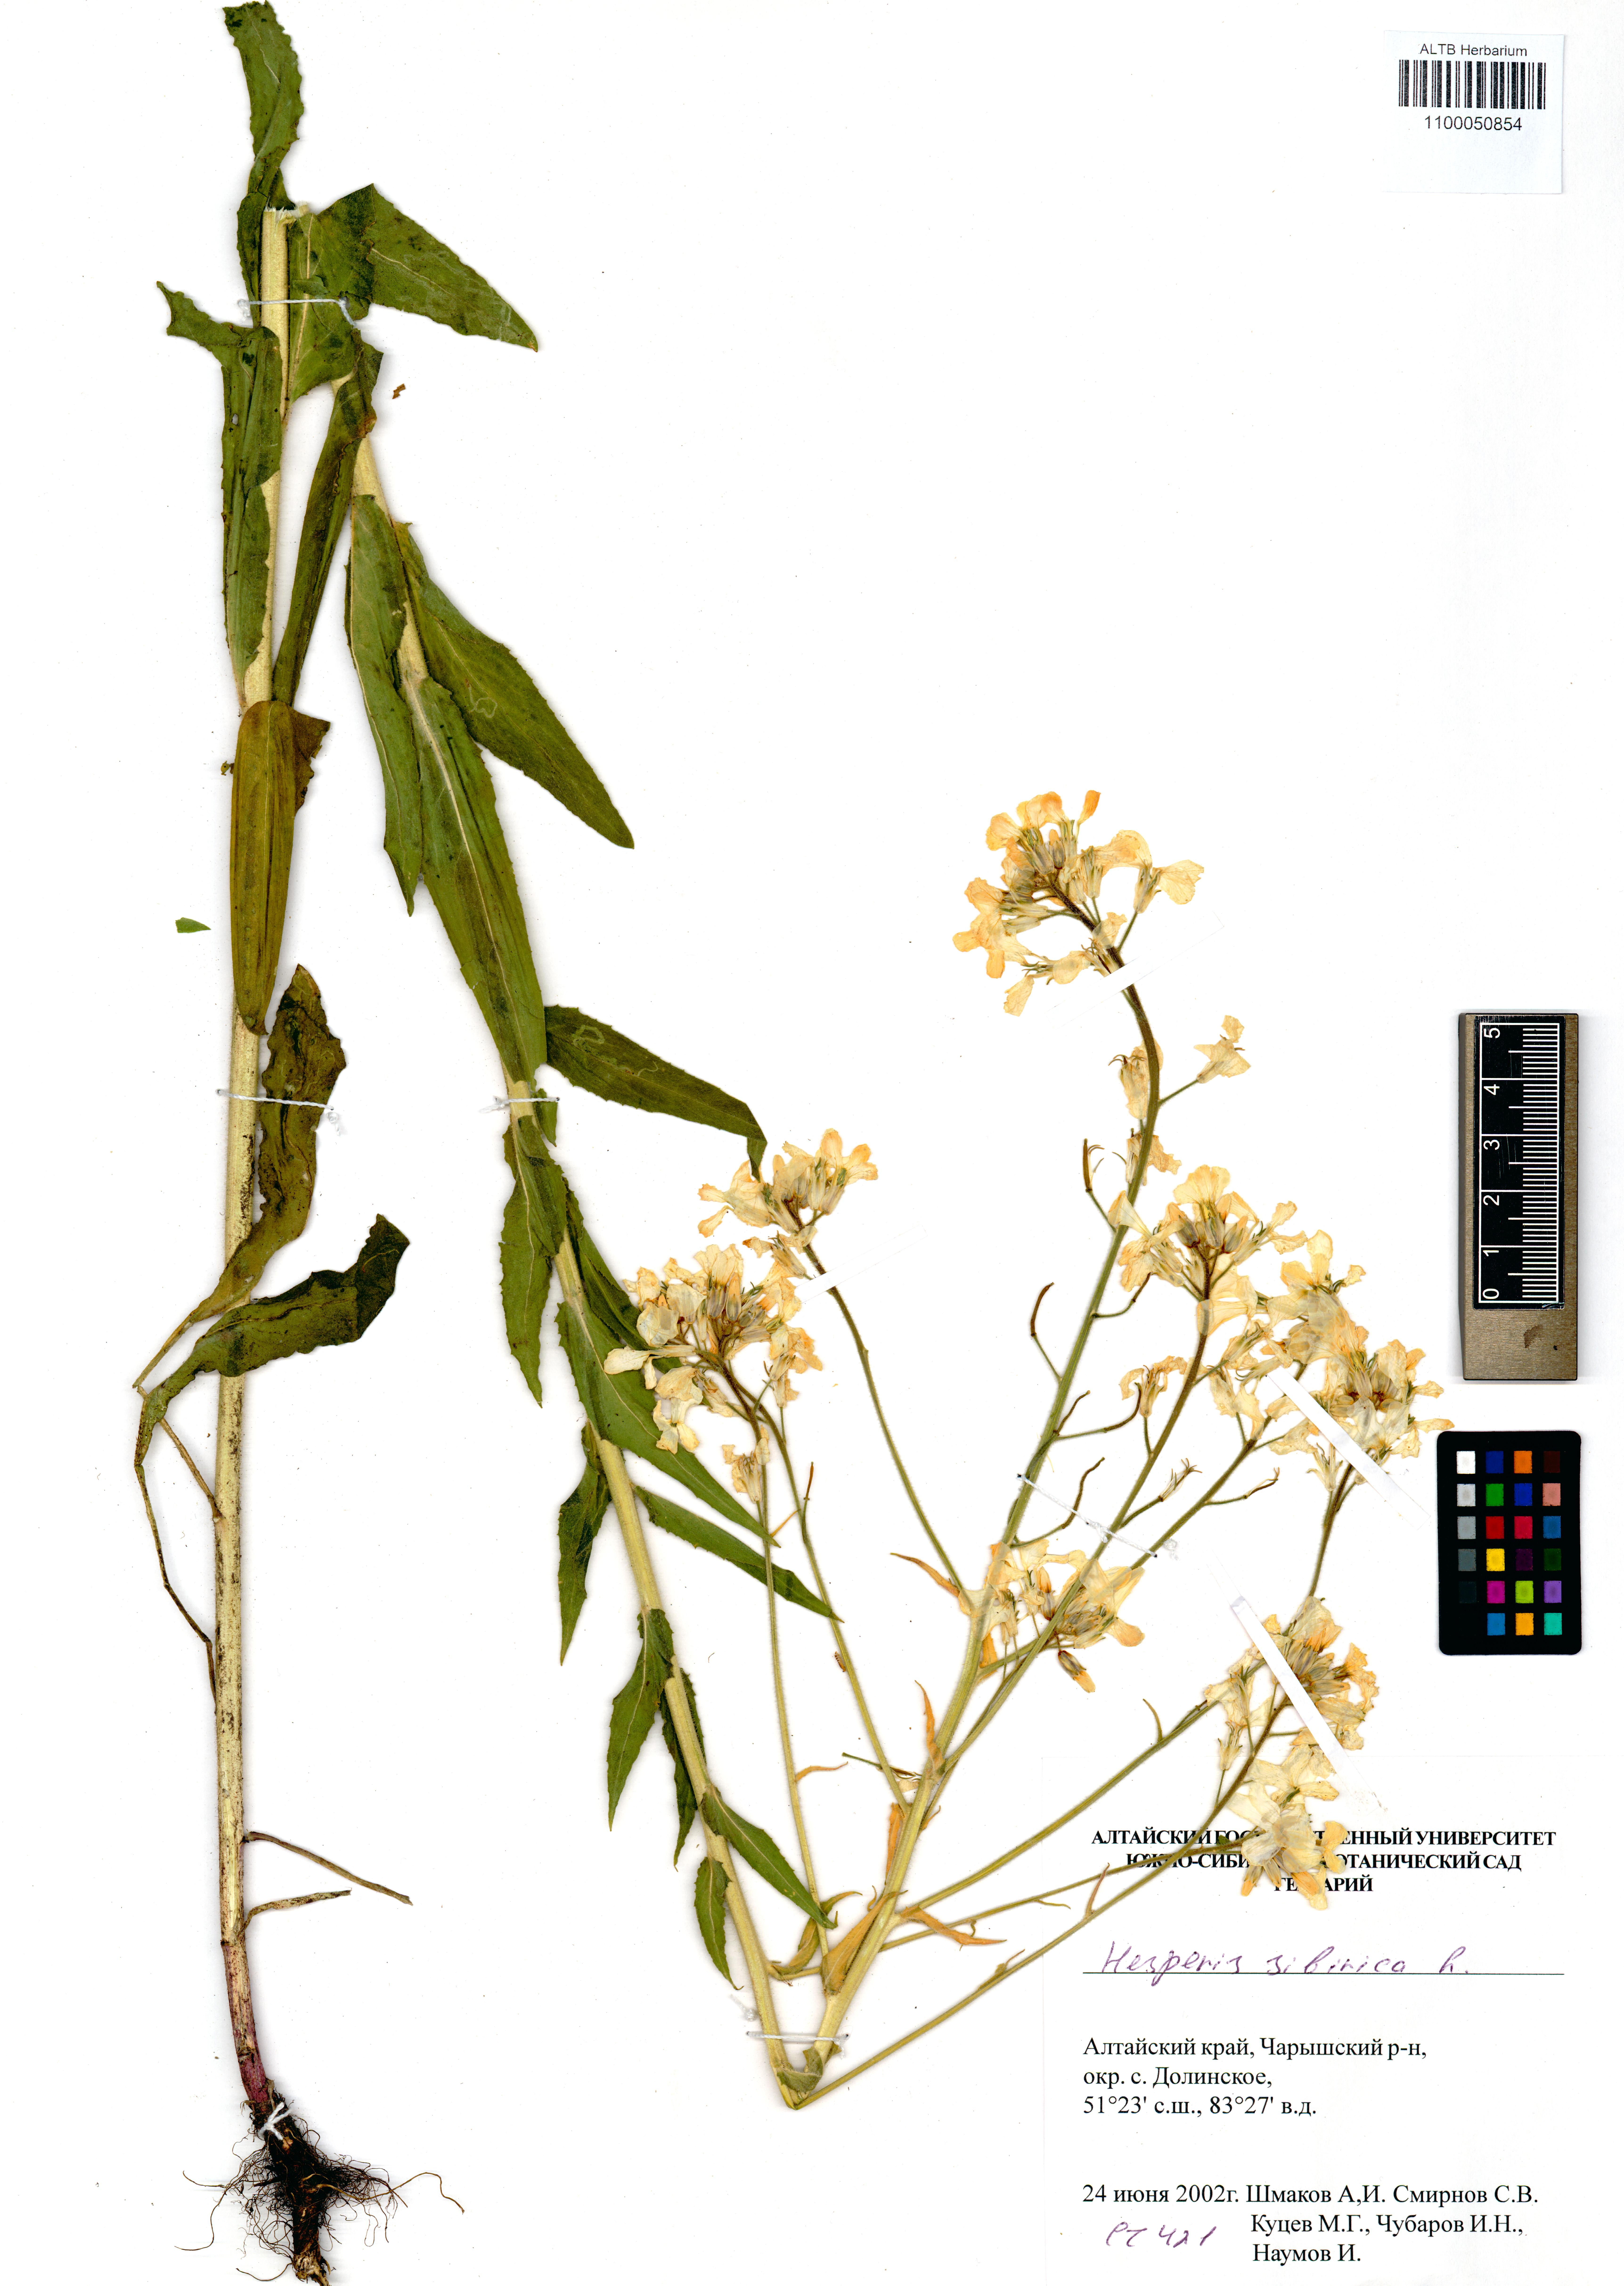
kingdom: Plantae
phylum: Tracheophyta
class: Magnoliopsida
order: Brassicales
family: Brassicaceae
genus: Hesperis
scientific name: Hesperis sibirica
